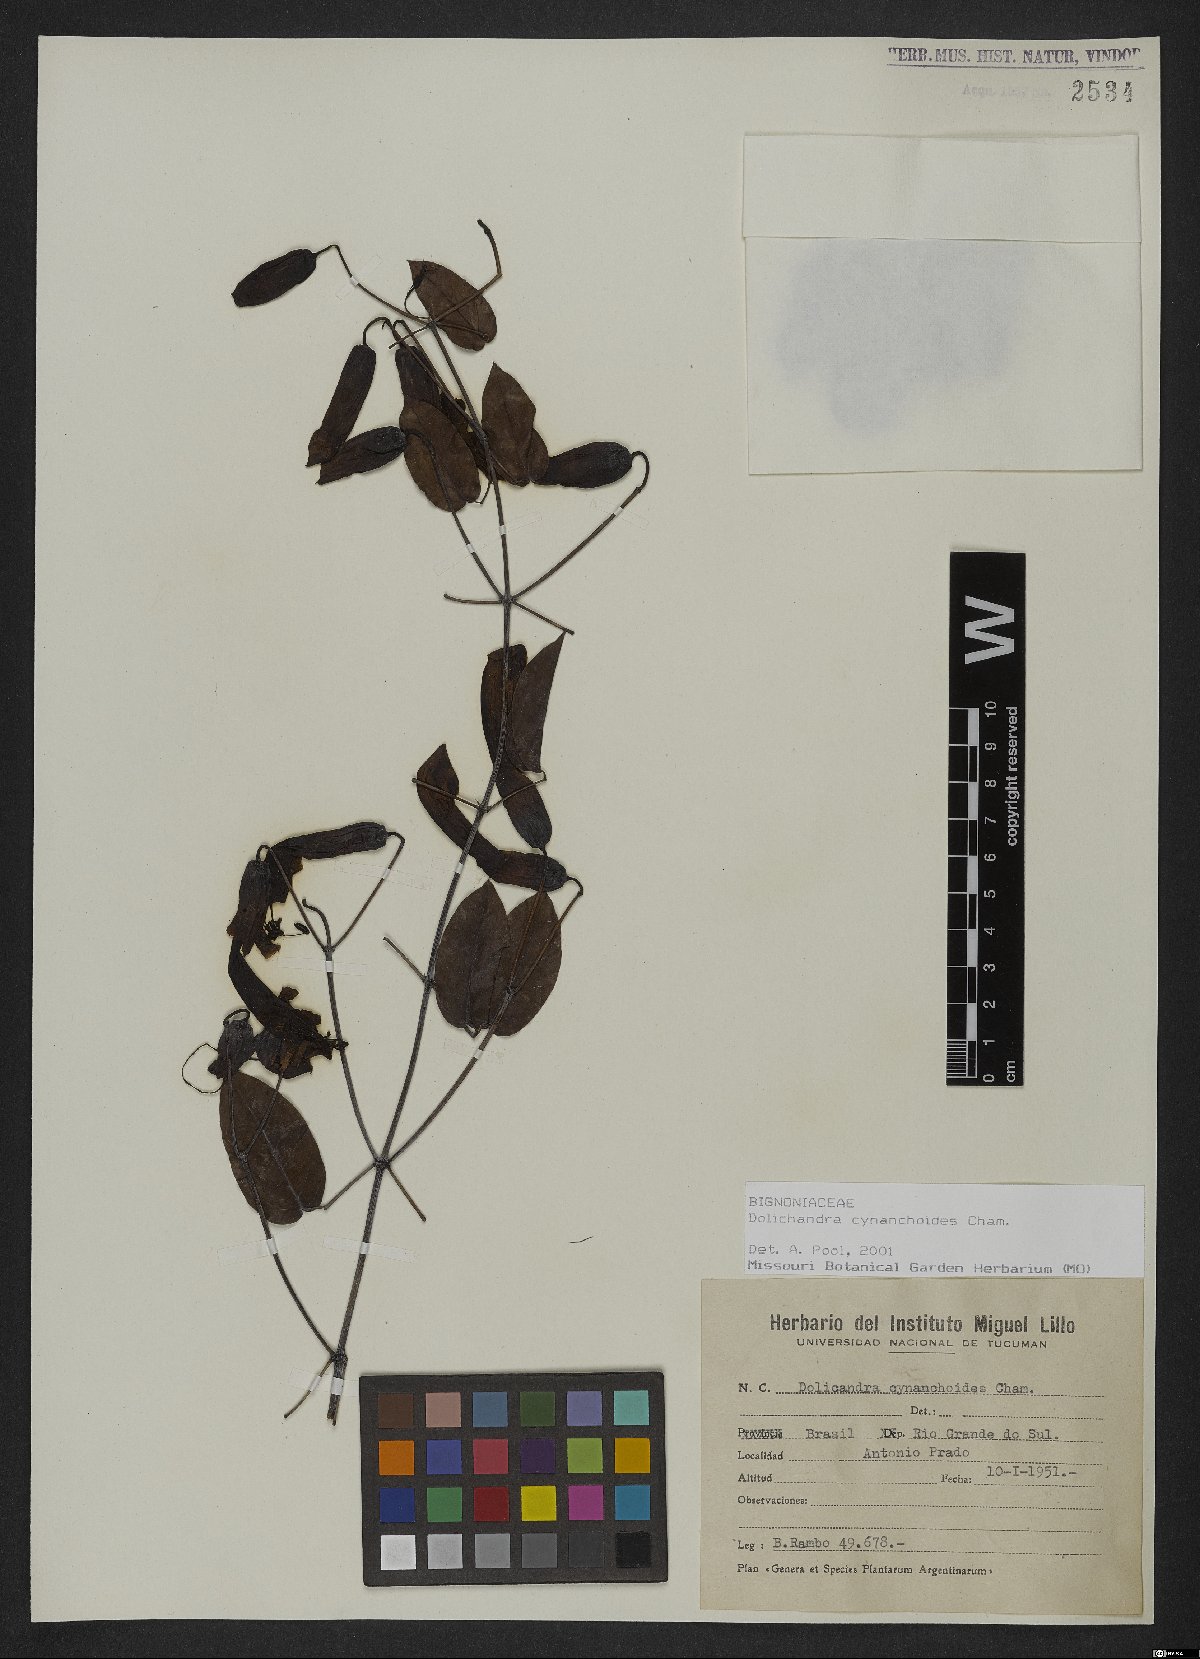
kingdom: Plantae
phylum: Tracheophyta
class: Magnoliopsida
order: Lamiales
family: Bignoniaceae
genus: Dolichandra
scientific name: Dolichandra cynanchoides
